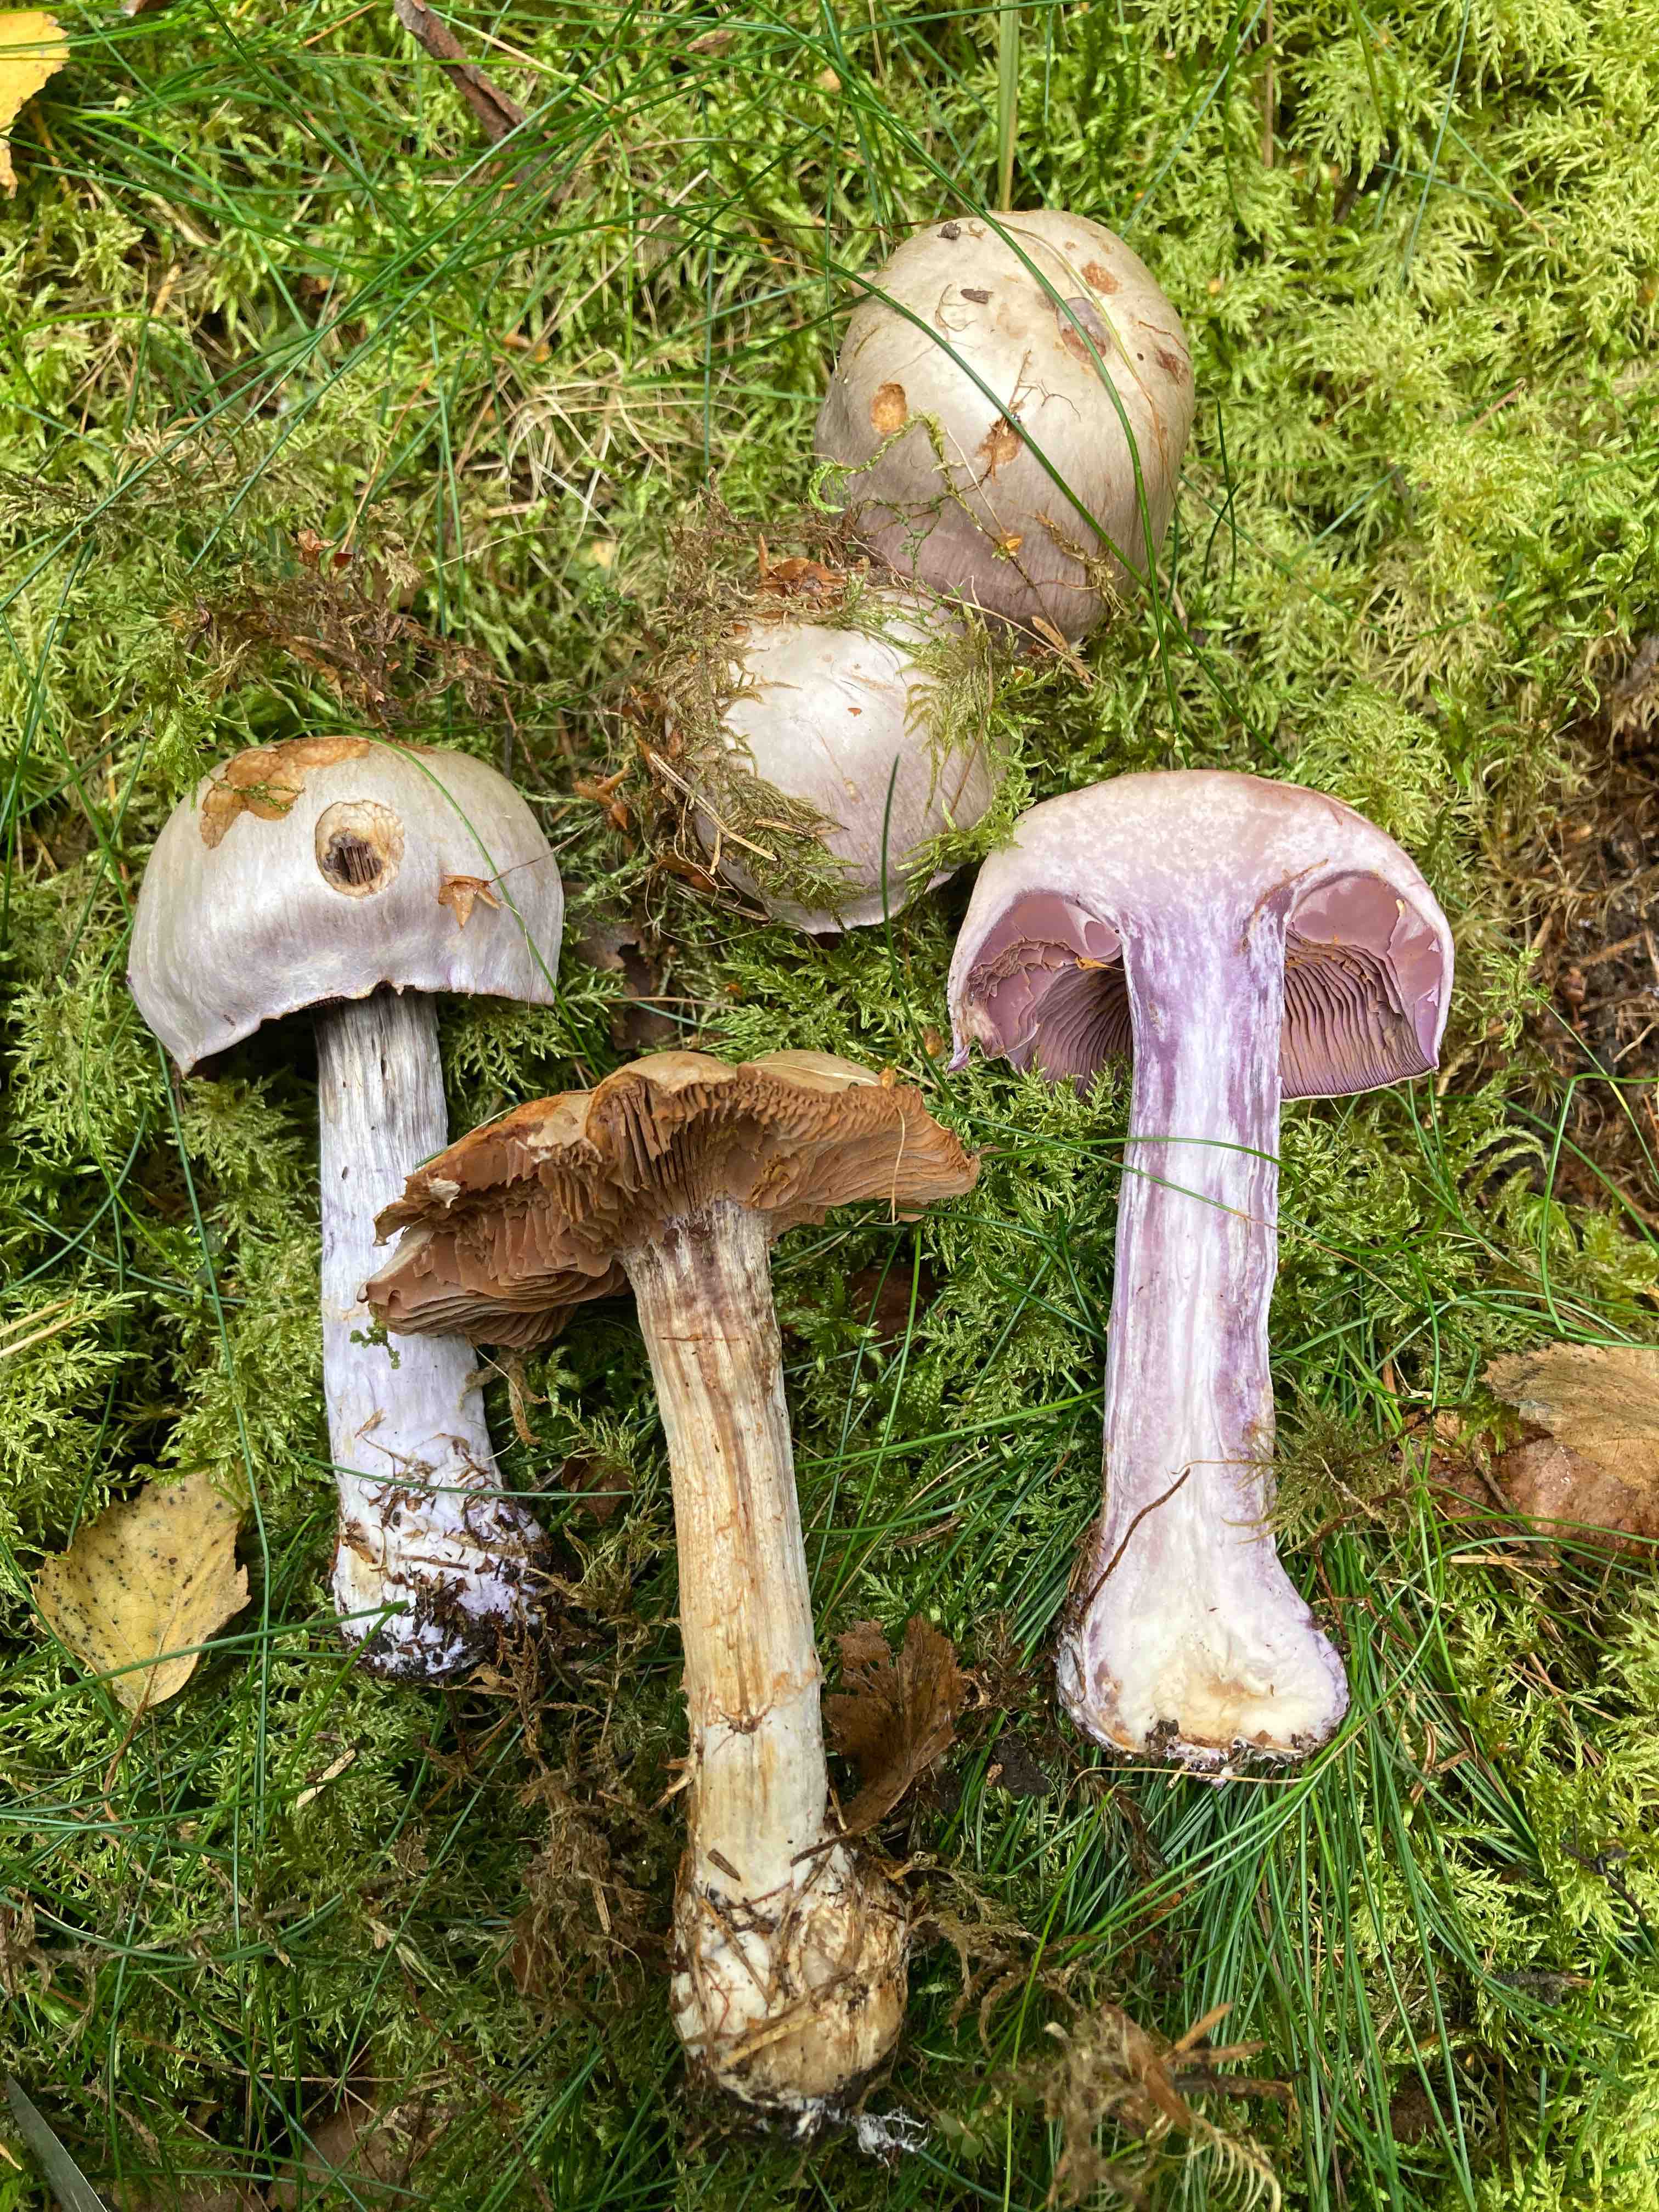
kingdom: Fungi
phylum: Basidiomycota
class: Agaricomycetes
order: Agaricales
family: Cortinariaceae
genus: Cortinarius
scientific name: Cortinarius camphoratus
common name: stinkende slørhat
